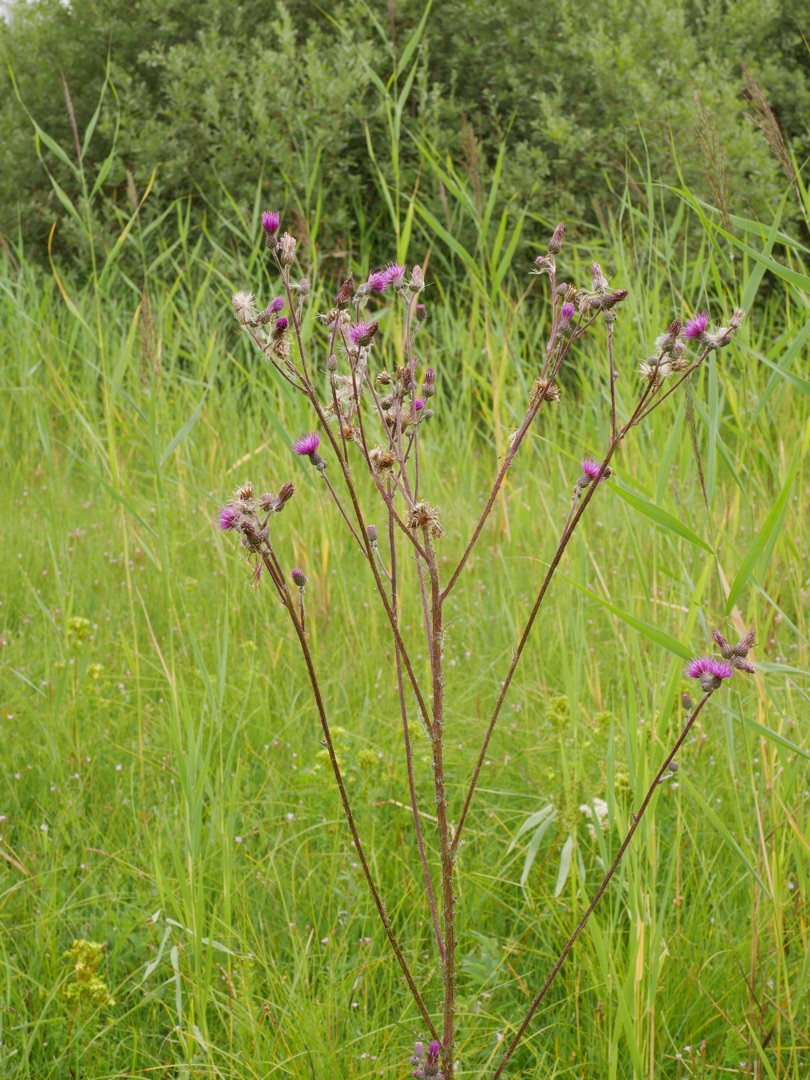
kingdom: Plantae
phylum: Tracheophyta
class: Magnoliopsida
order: Asterales
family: Asteraceae
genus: Cirsium
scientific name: Cirsium palustre
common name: Kær-tidsel
